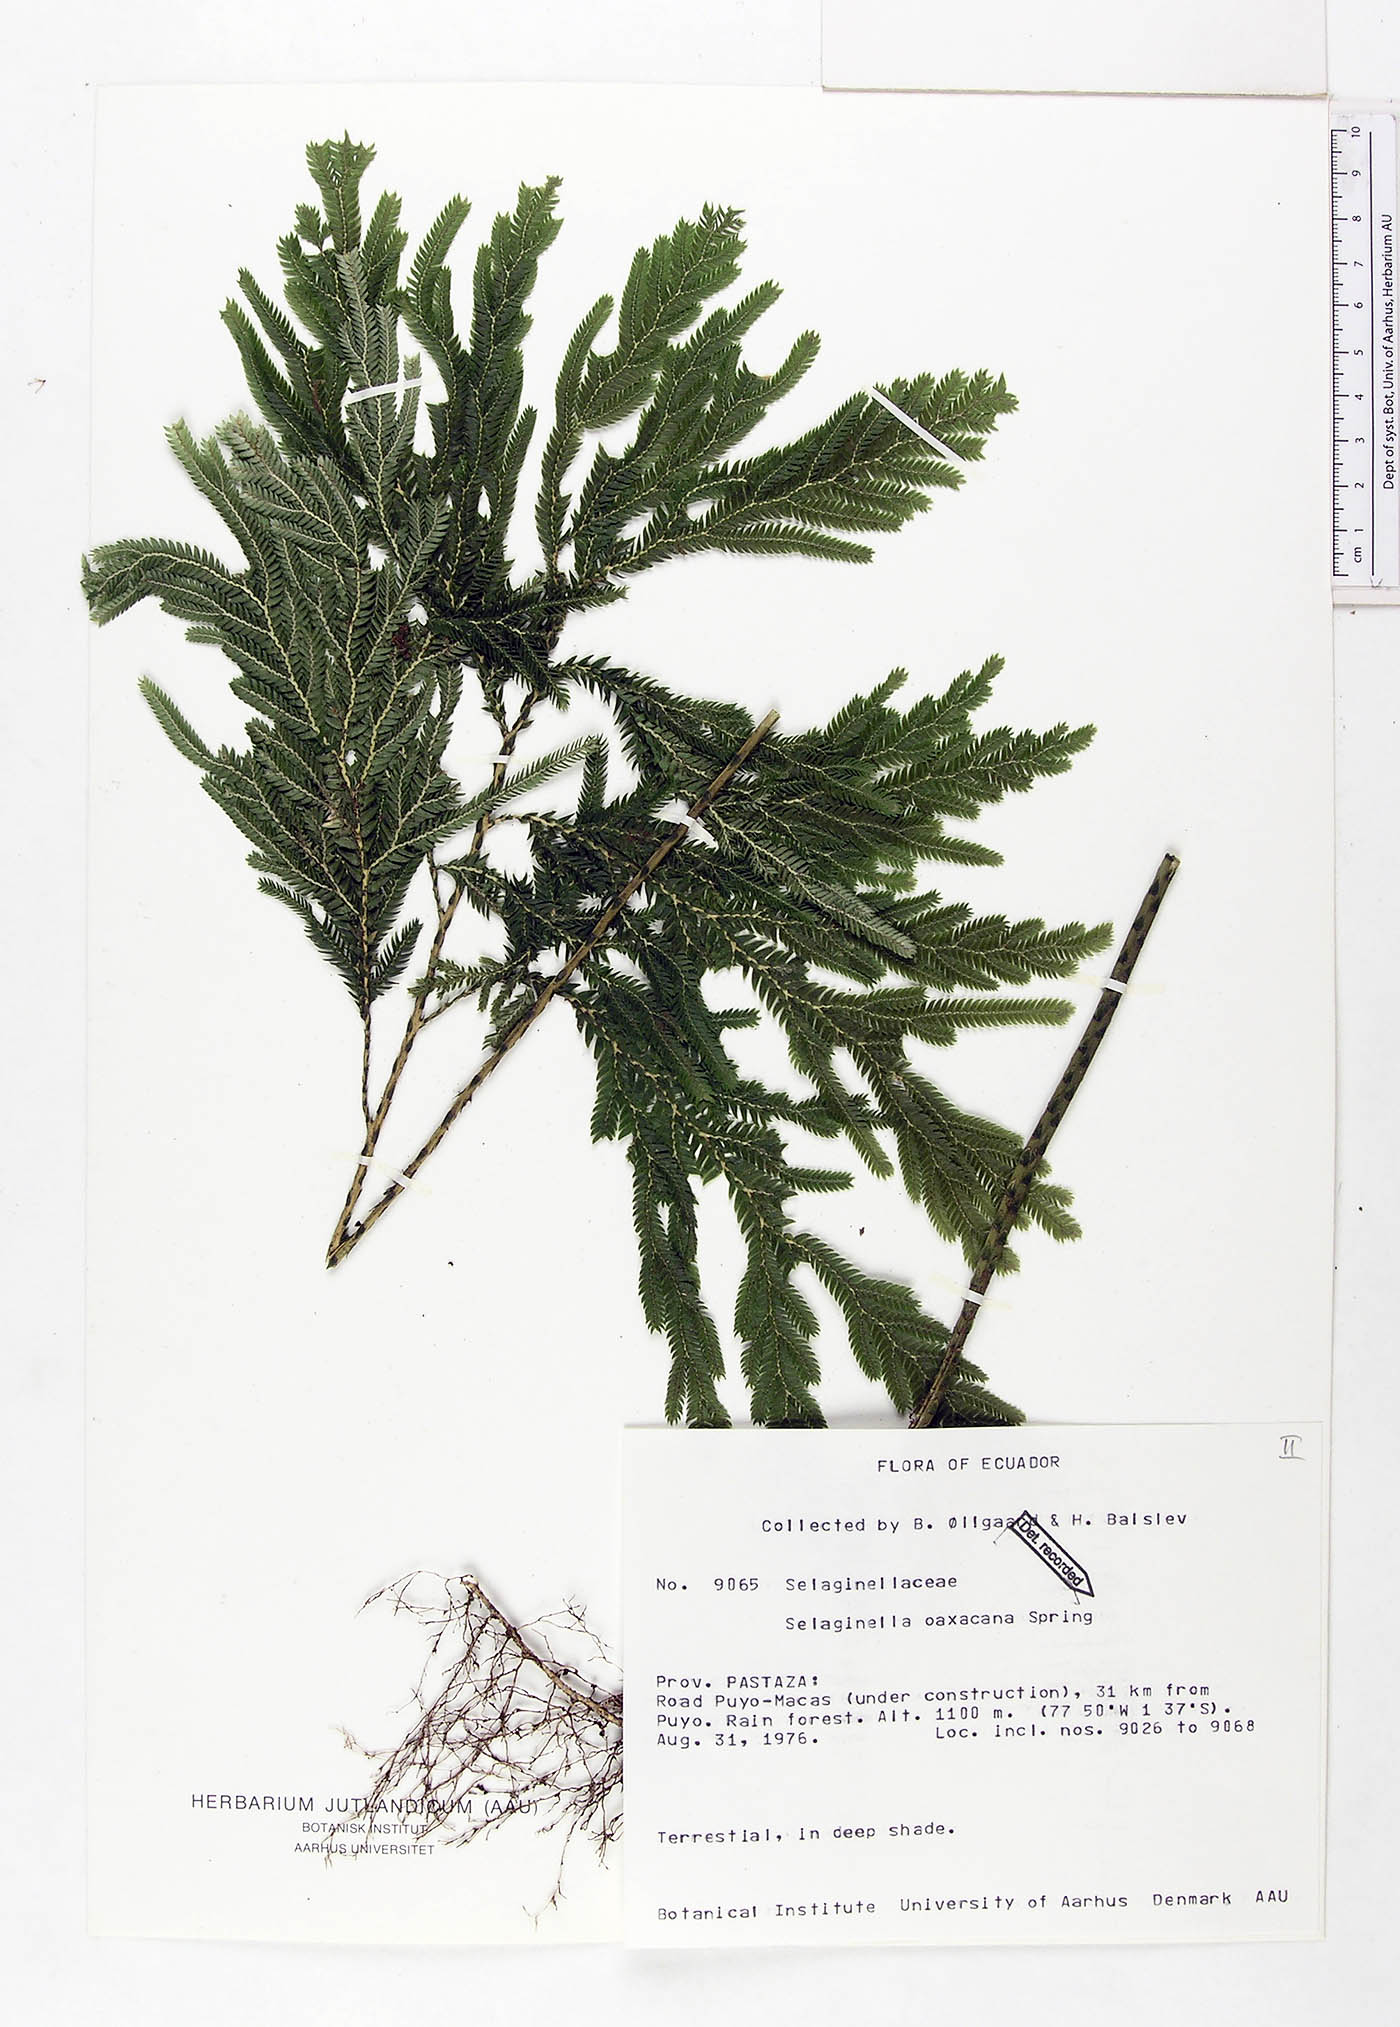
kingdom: Plantae
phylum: Tracheophyta
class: Lycopodiopsida
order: Selaginellales
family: Selaginellaceae
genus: Selaginella
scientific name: Selaginella oaxacana
